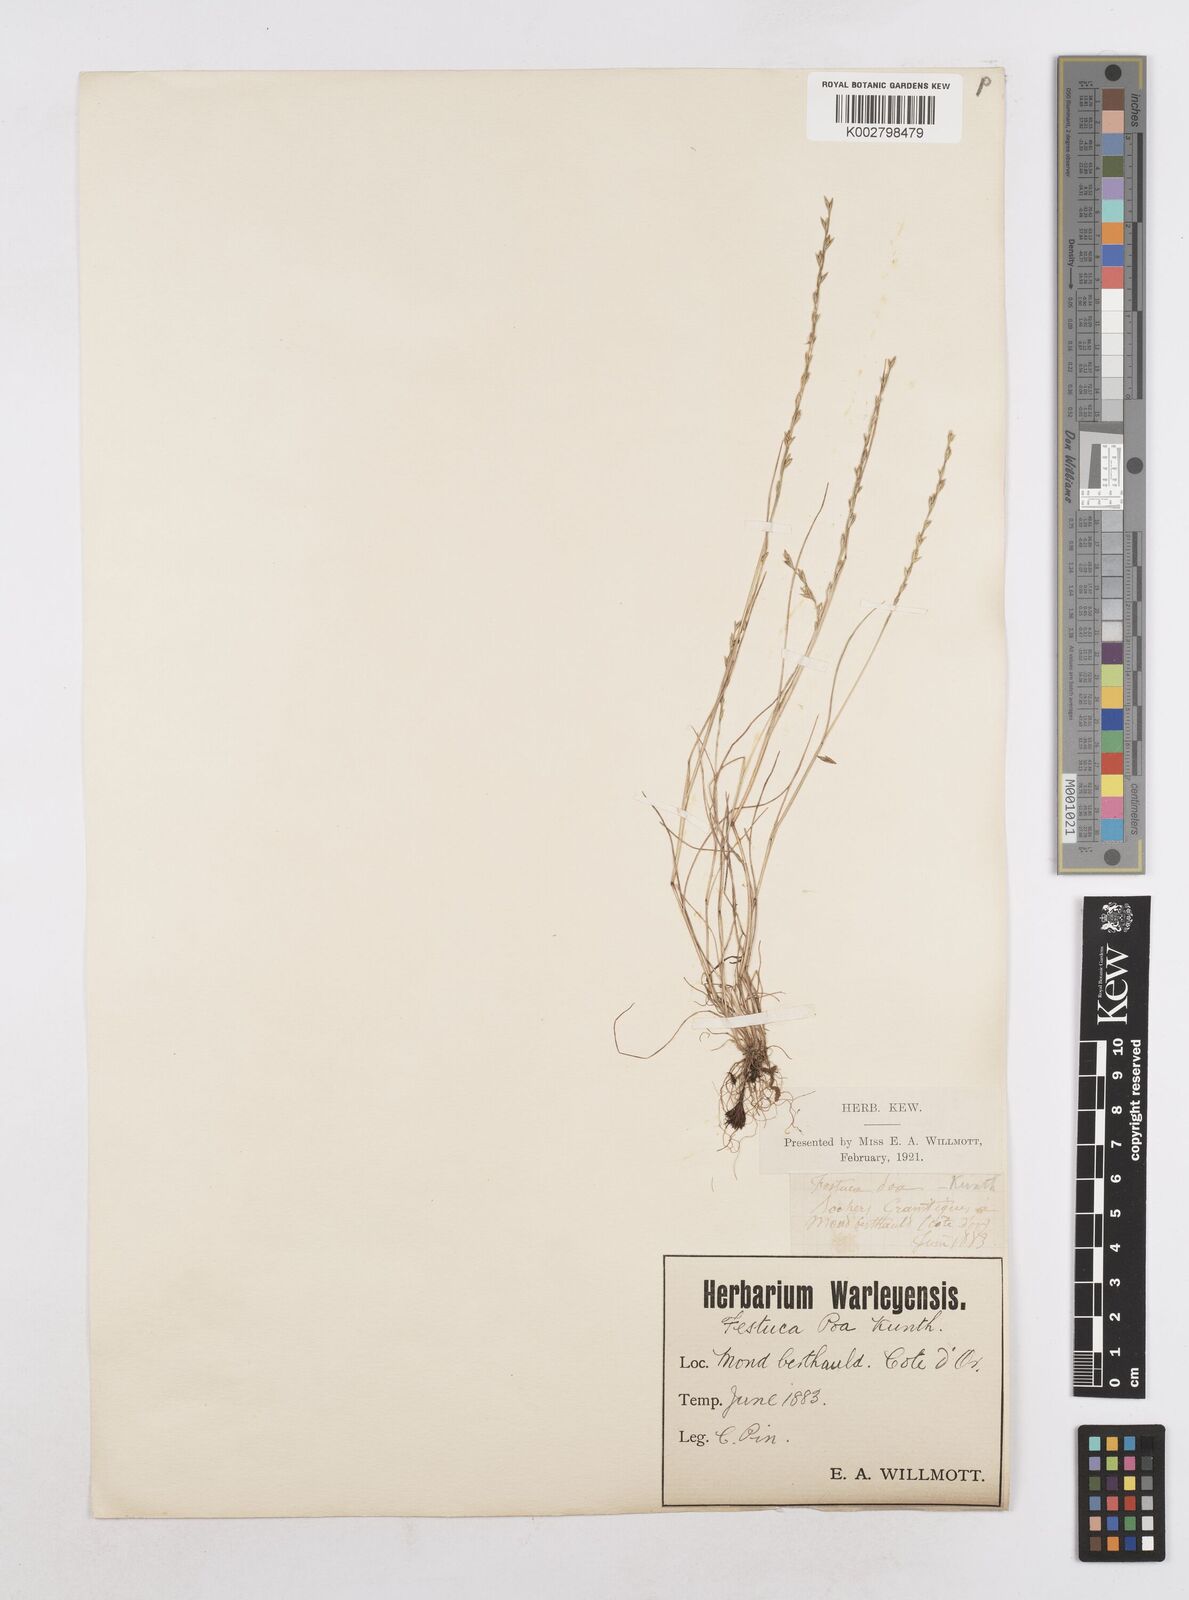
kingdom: Plantae
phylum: Tracheophyta
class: Liliopsida
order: Poales
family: Poaceae
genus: Festuca
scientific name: Festuca lachenalii
